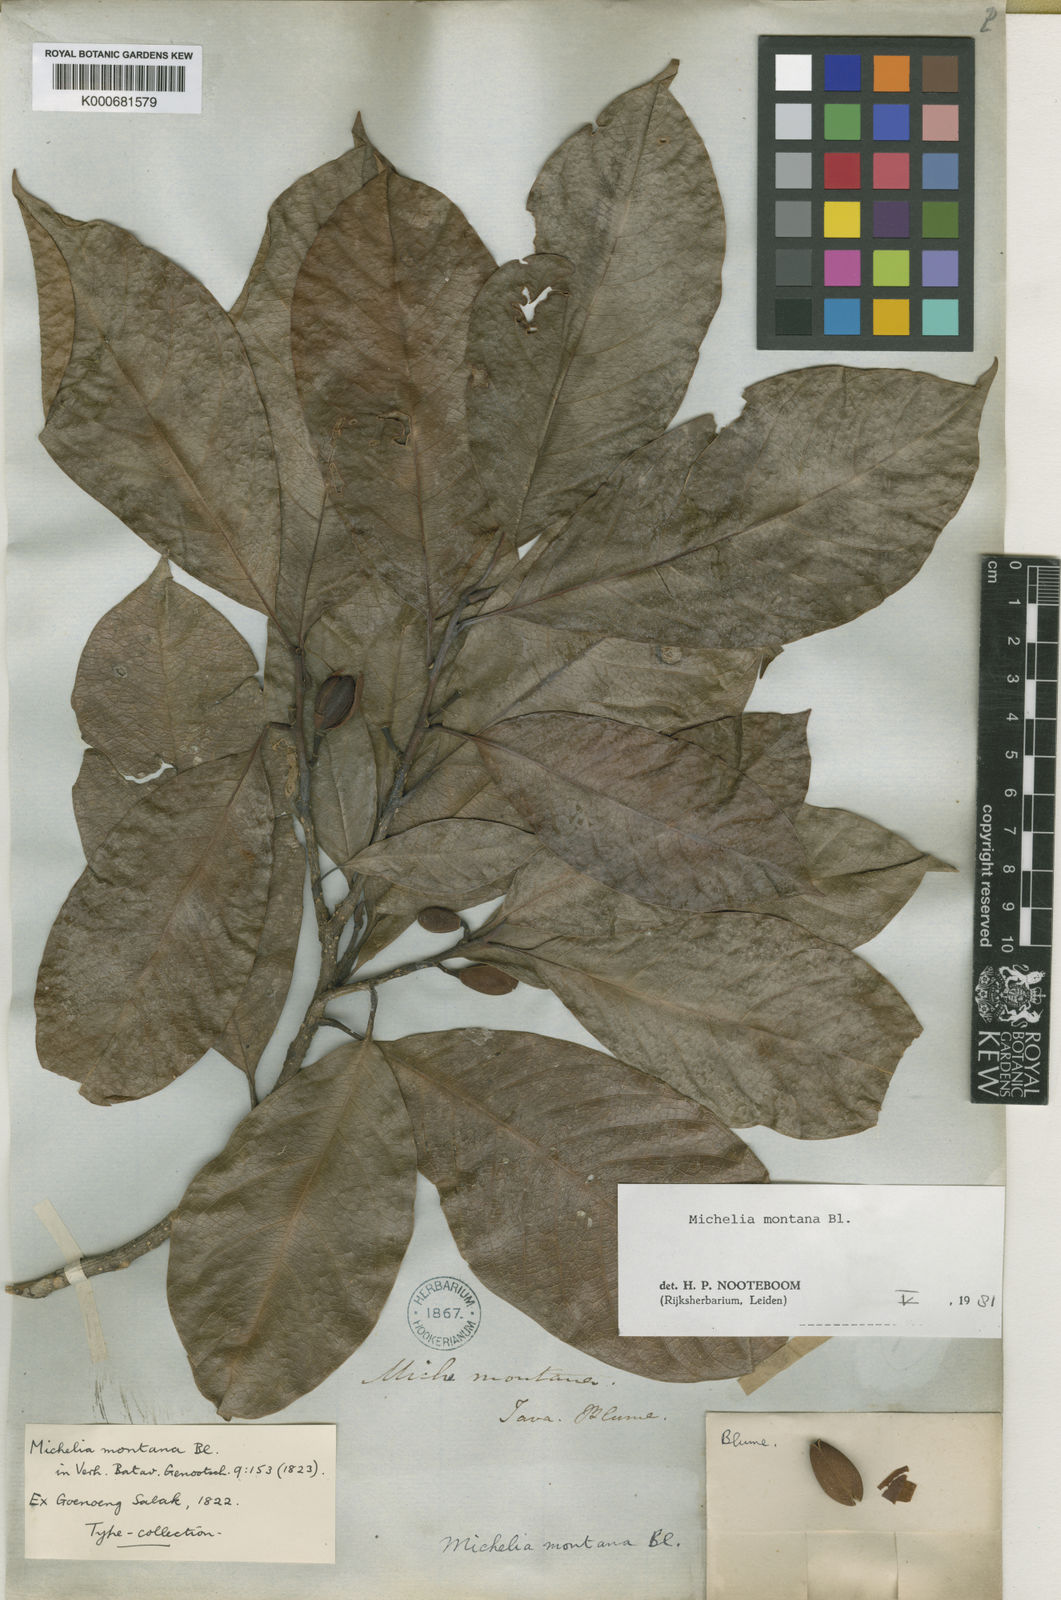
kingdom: Plantae
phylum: Tracheophyta
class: Magnoliopsida
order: Magnoliales
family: Magnoliaceae
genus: Magnolia
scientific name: Magnolia montana
